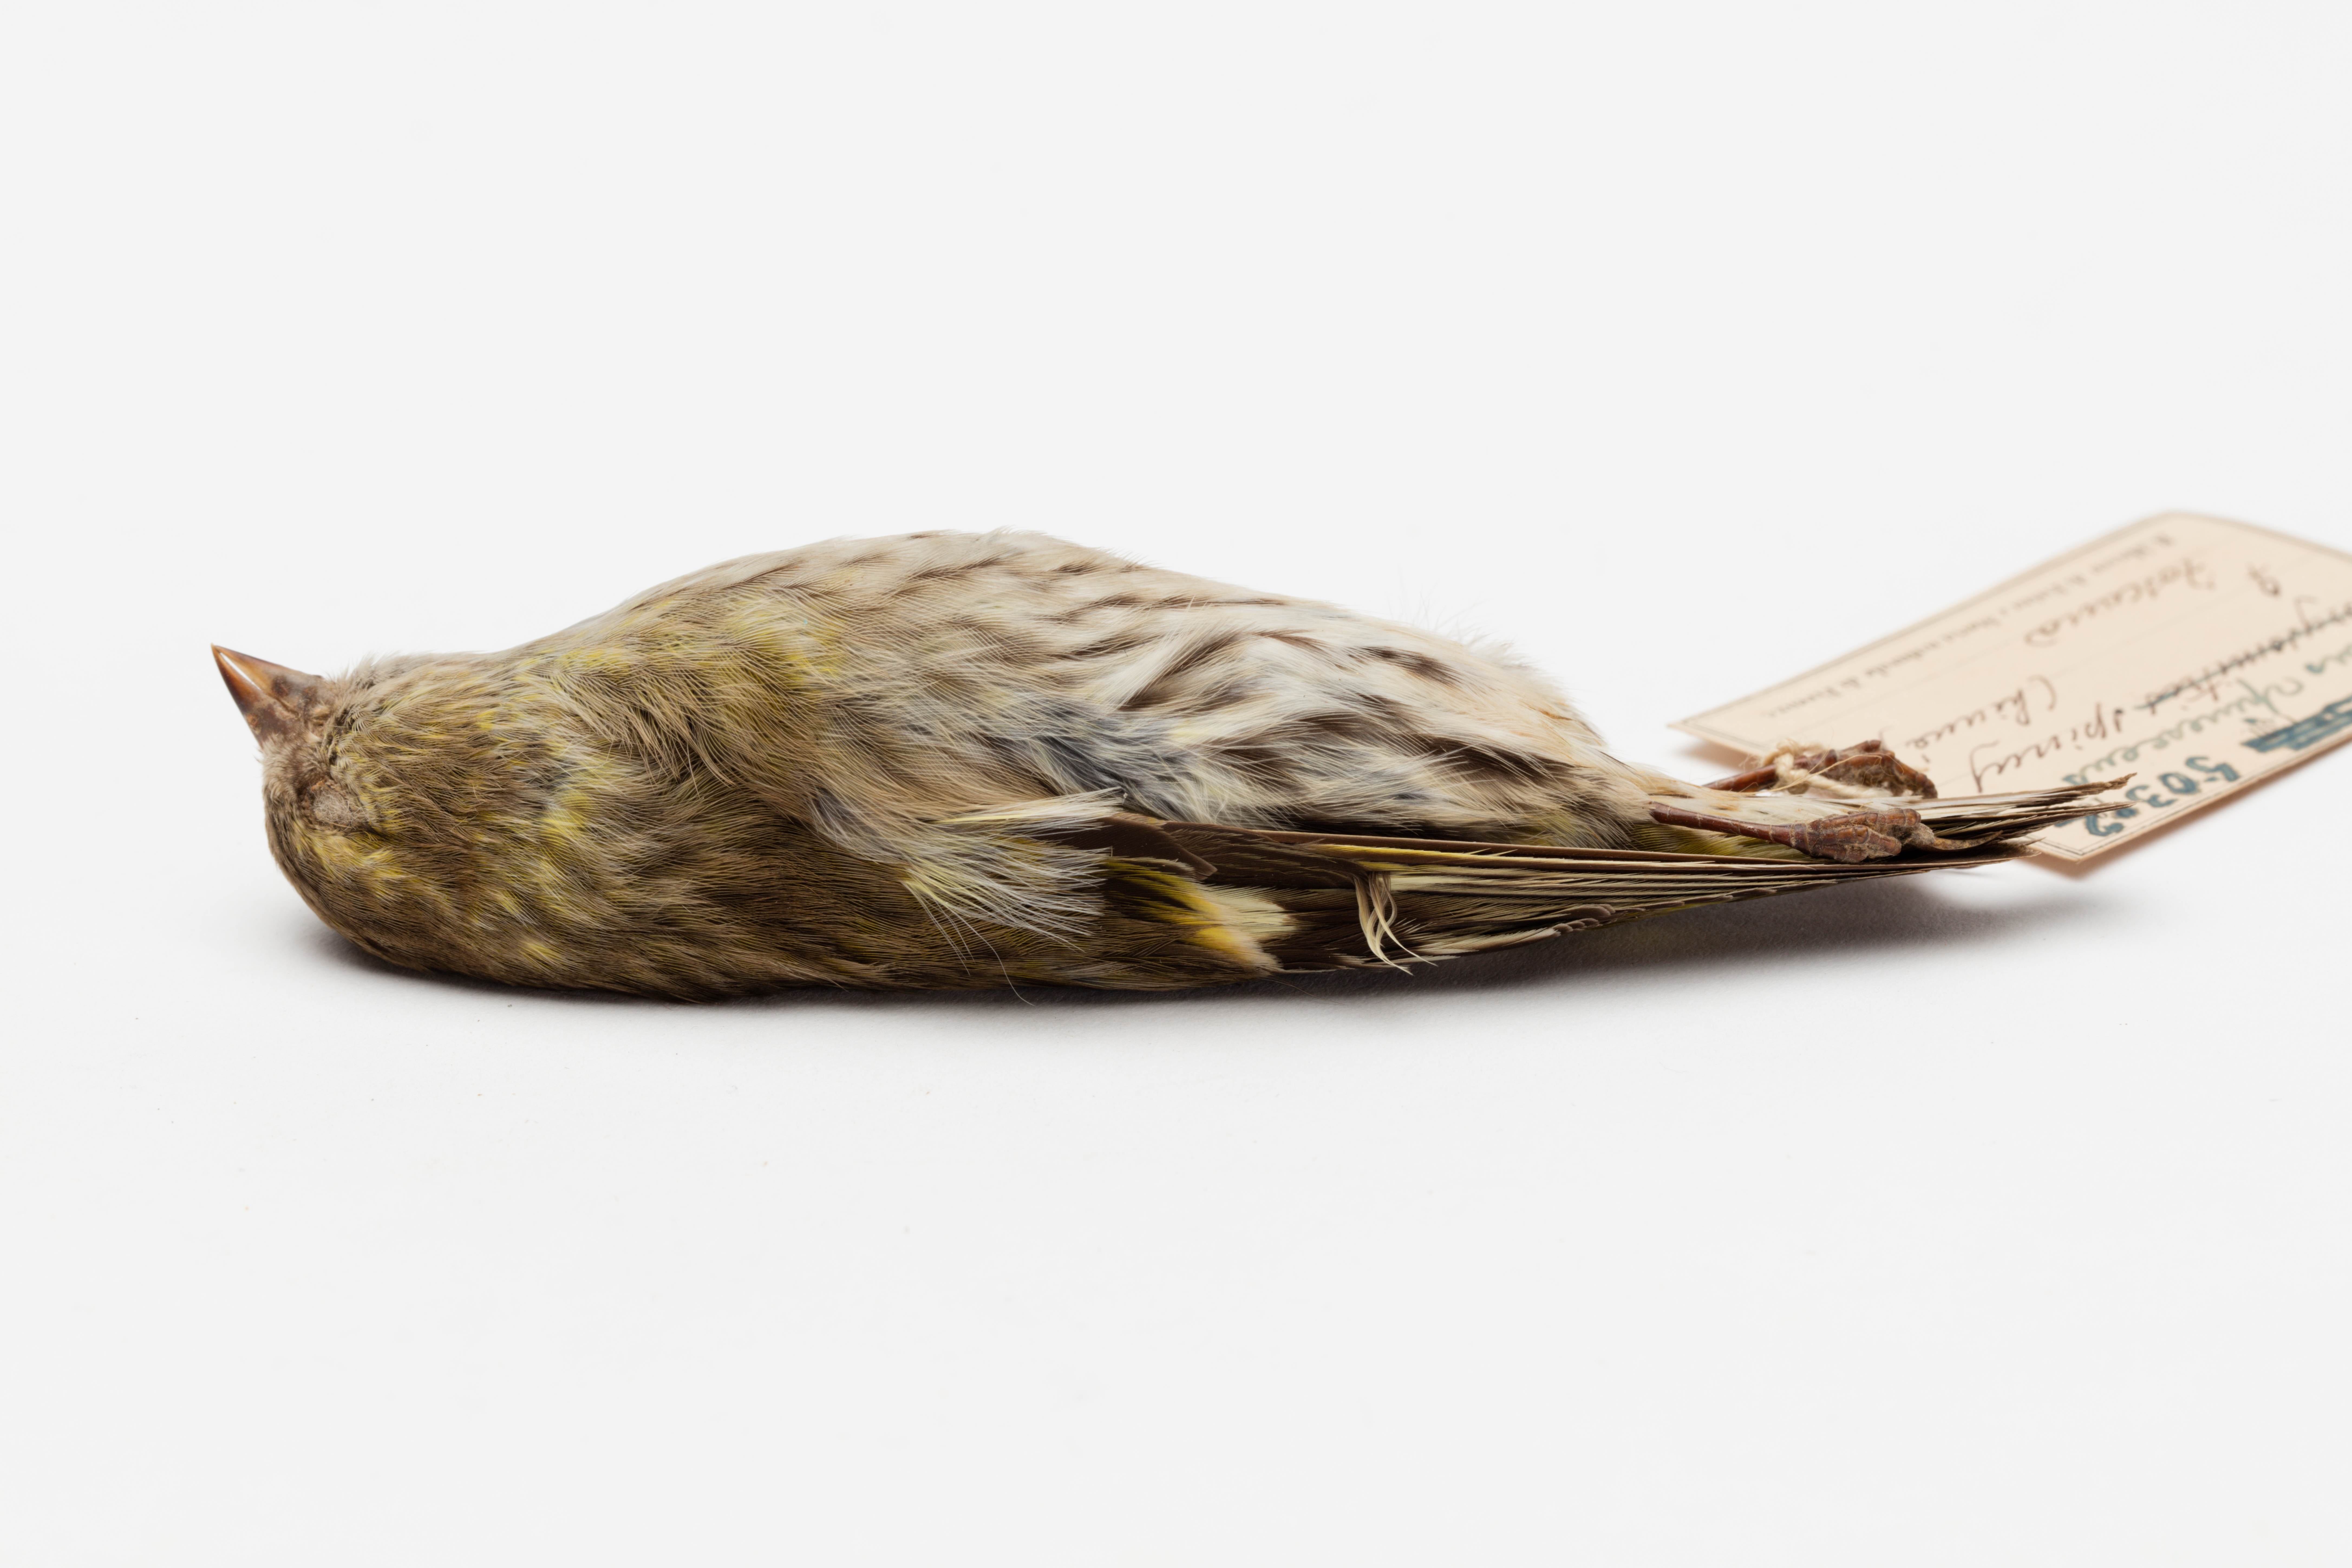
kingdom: Animalia
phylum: Chordata
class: Aves
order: Passeriformes
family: Fringillidae
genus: Spinus
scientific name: Spinus spinus
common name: Eurasian siskin
